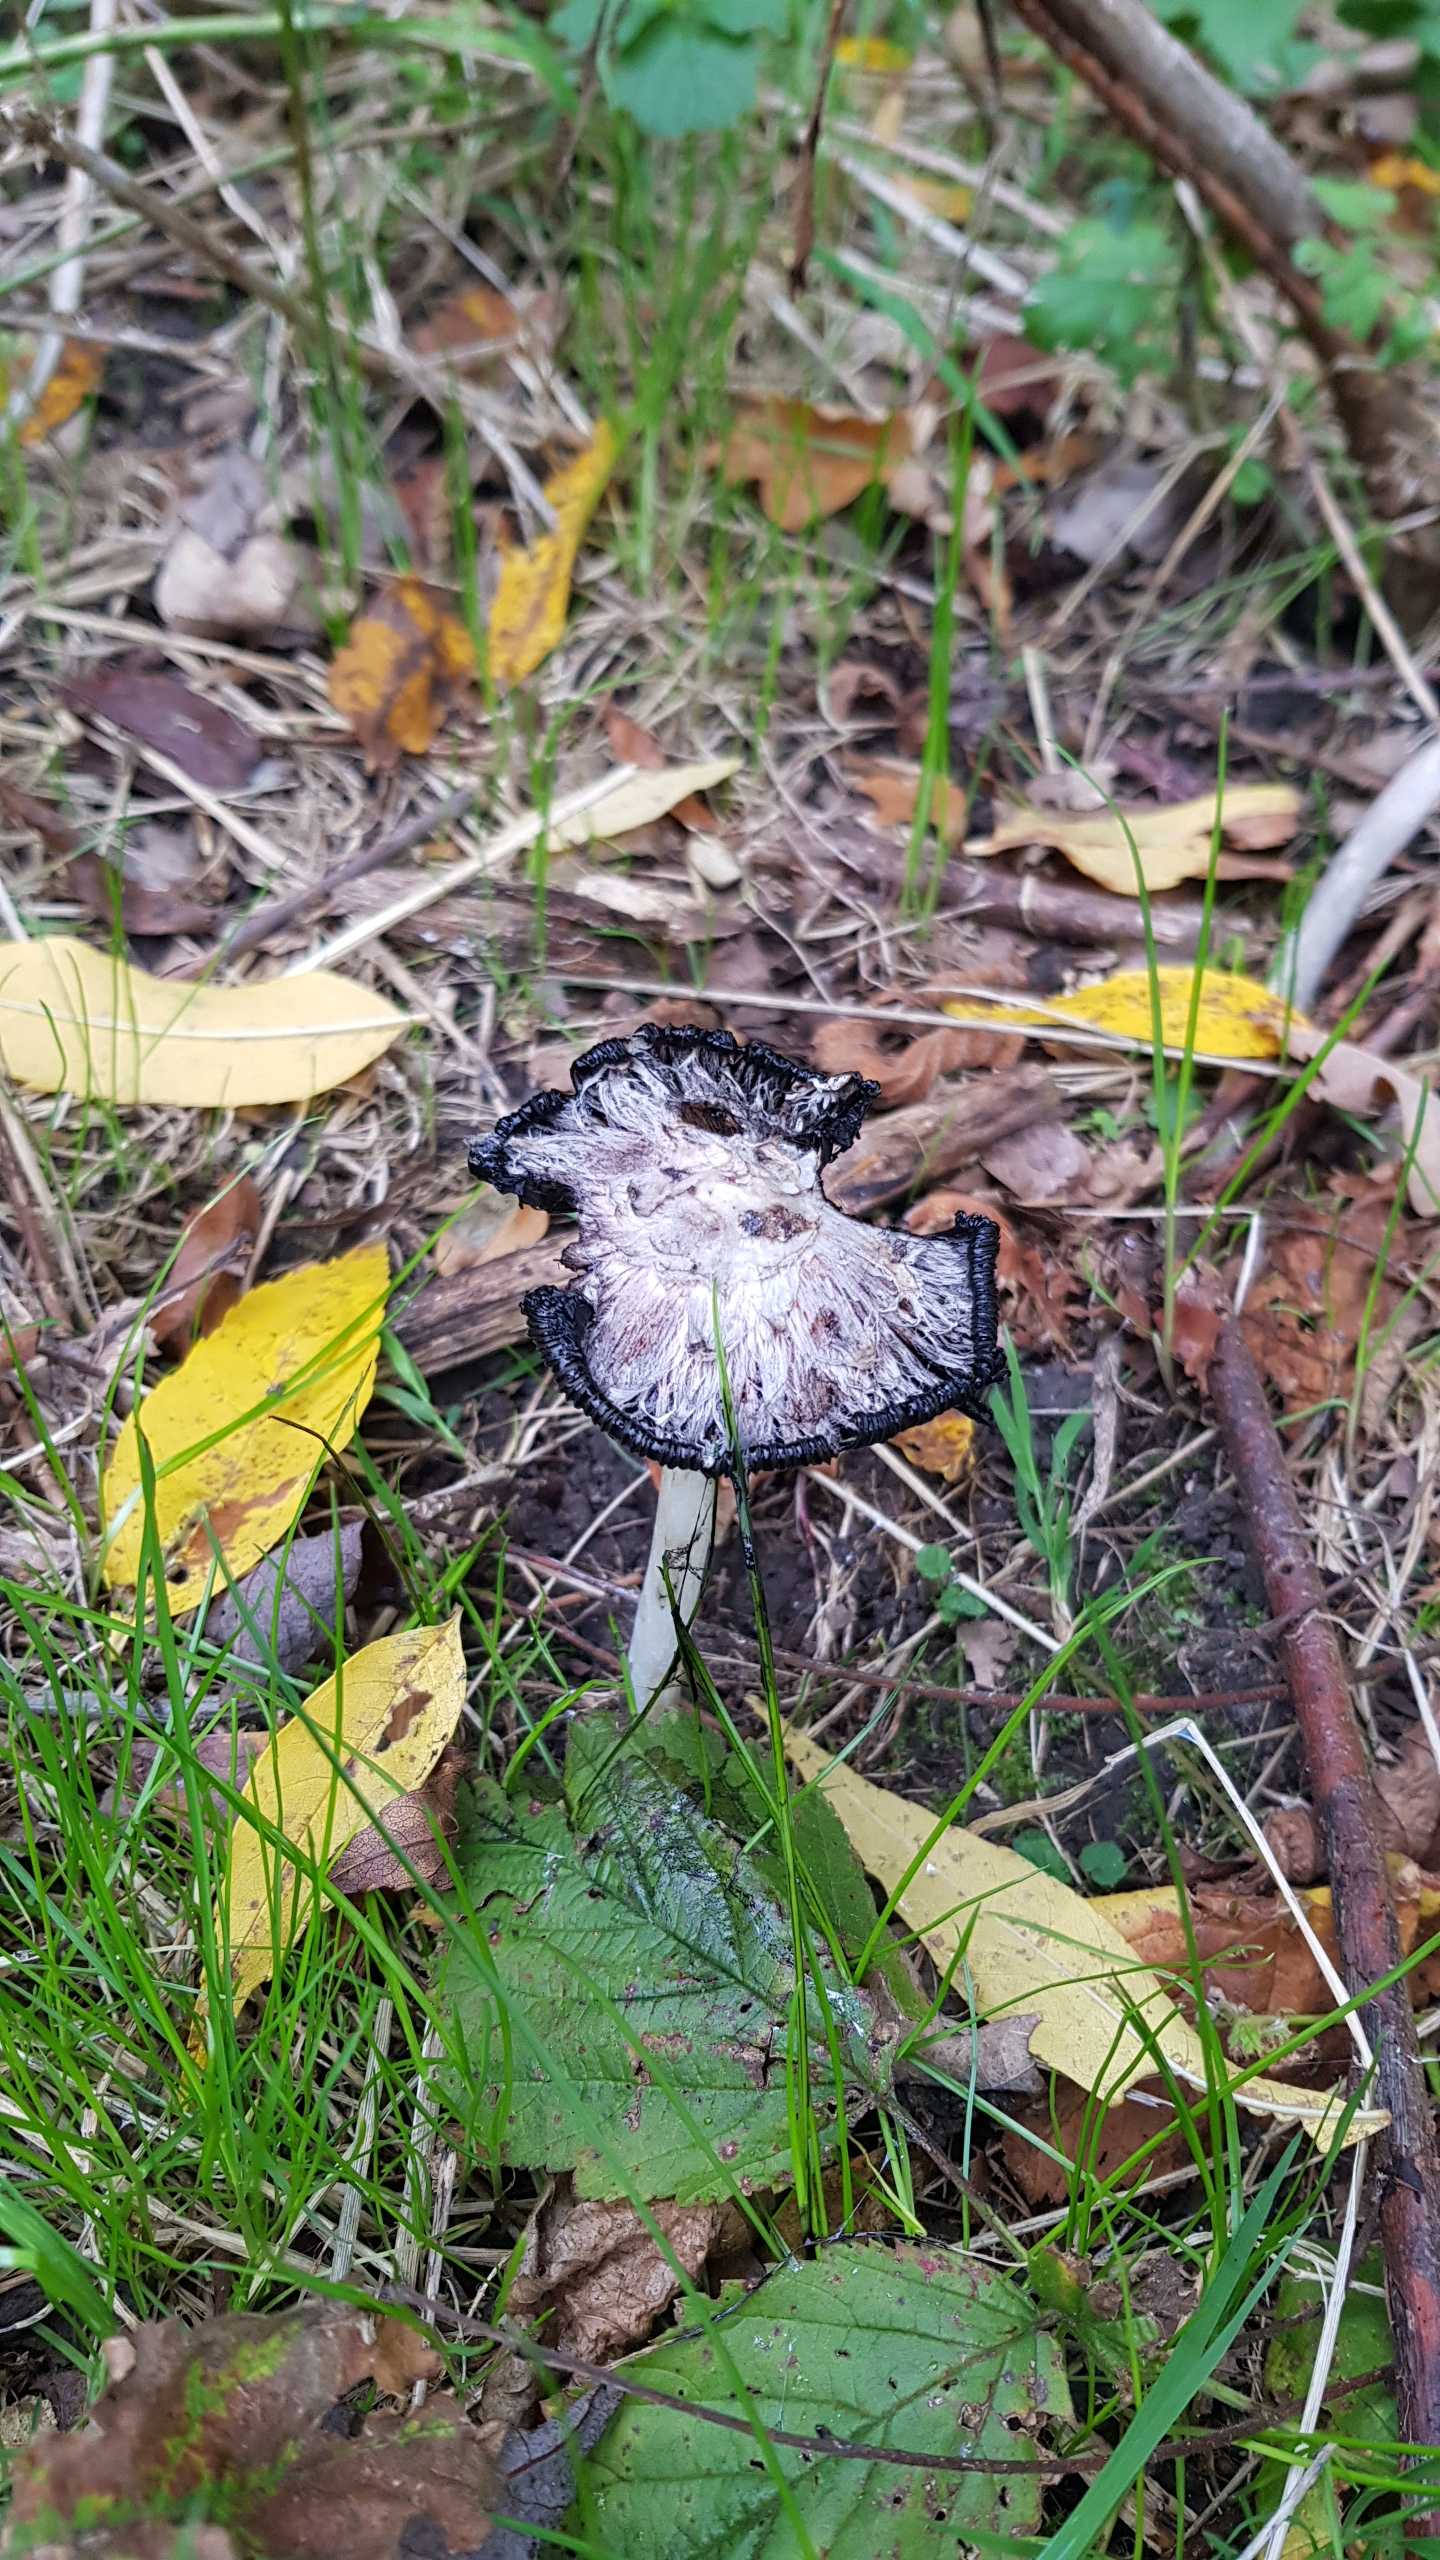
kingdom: Fungi
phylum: Basidiomycota
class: Agaricomycetes
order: Agaricales
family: Agaricaceae
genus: Coprinus
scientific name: Coprinus comatus
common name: Stor parykhat
